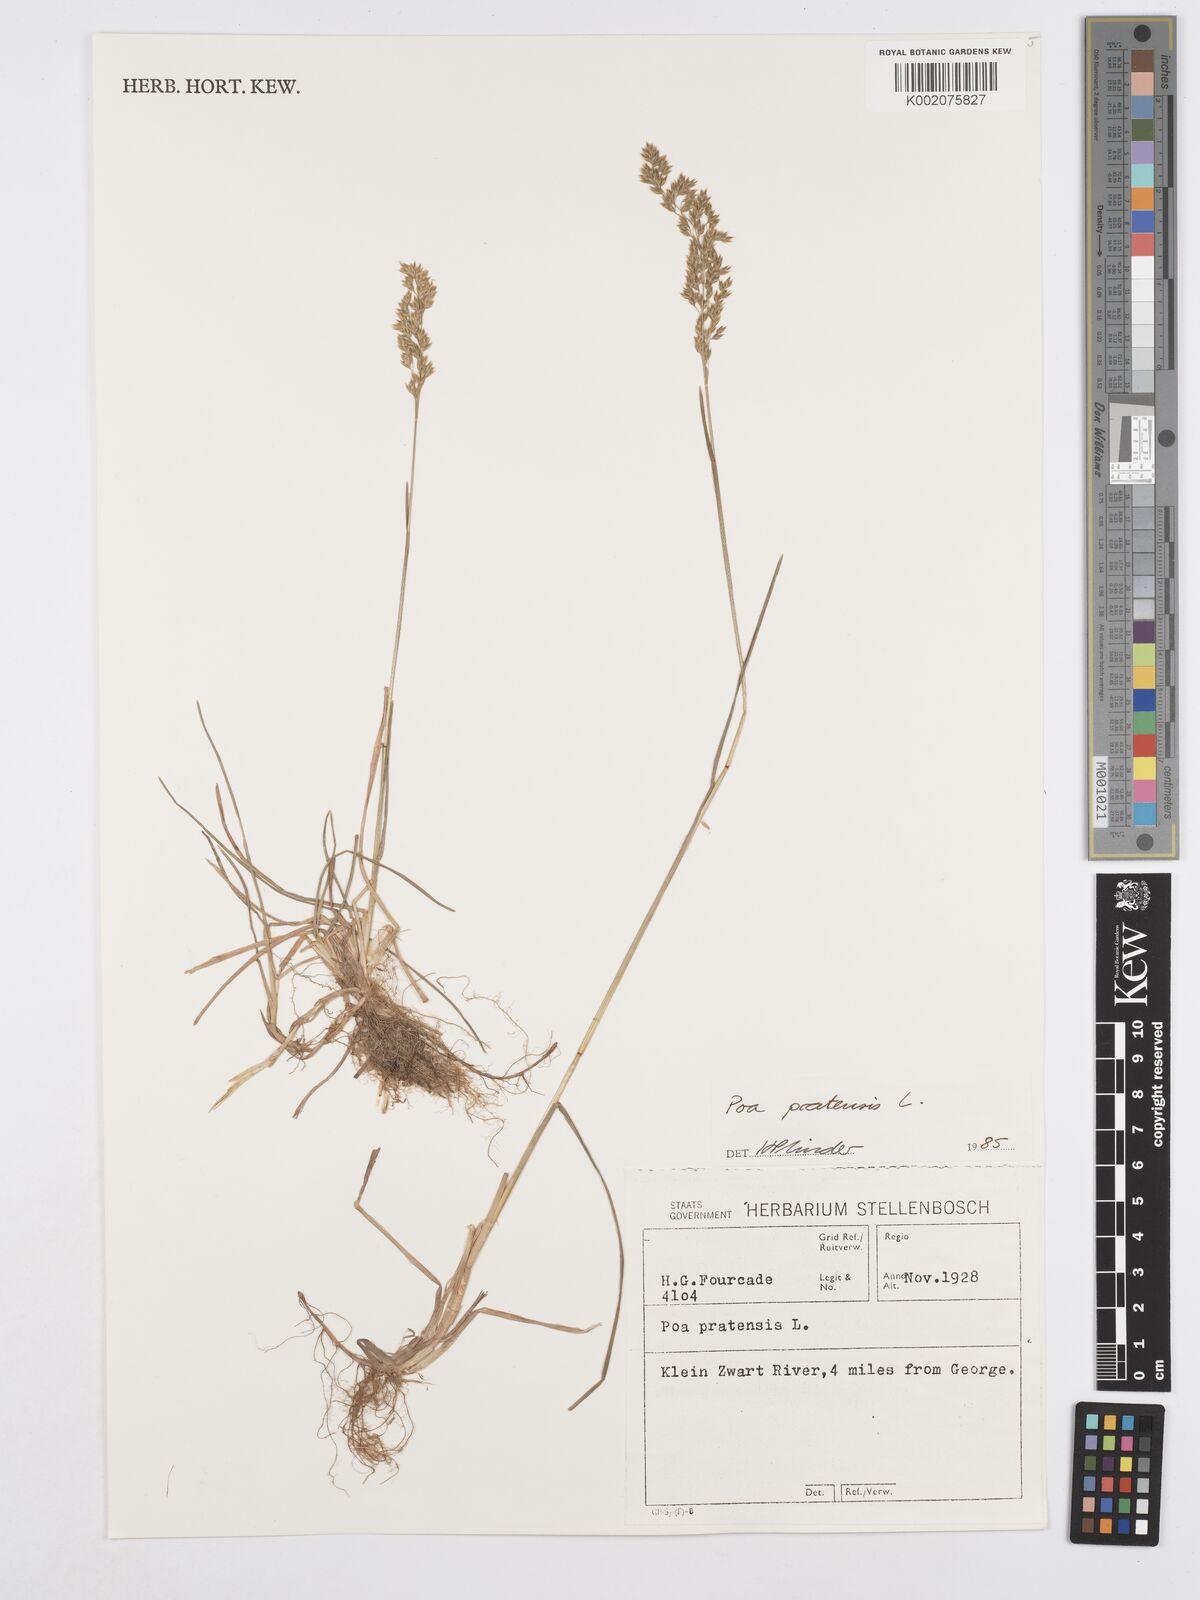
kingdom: Plantae
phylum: Tracheophyta
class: Liliopsida
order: Poales
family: Poaceae
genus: Poa
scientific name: Poa pratensis
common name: Kentucky bluegrass
